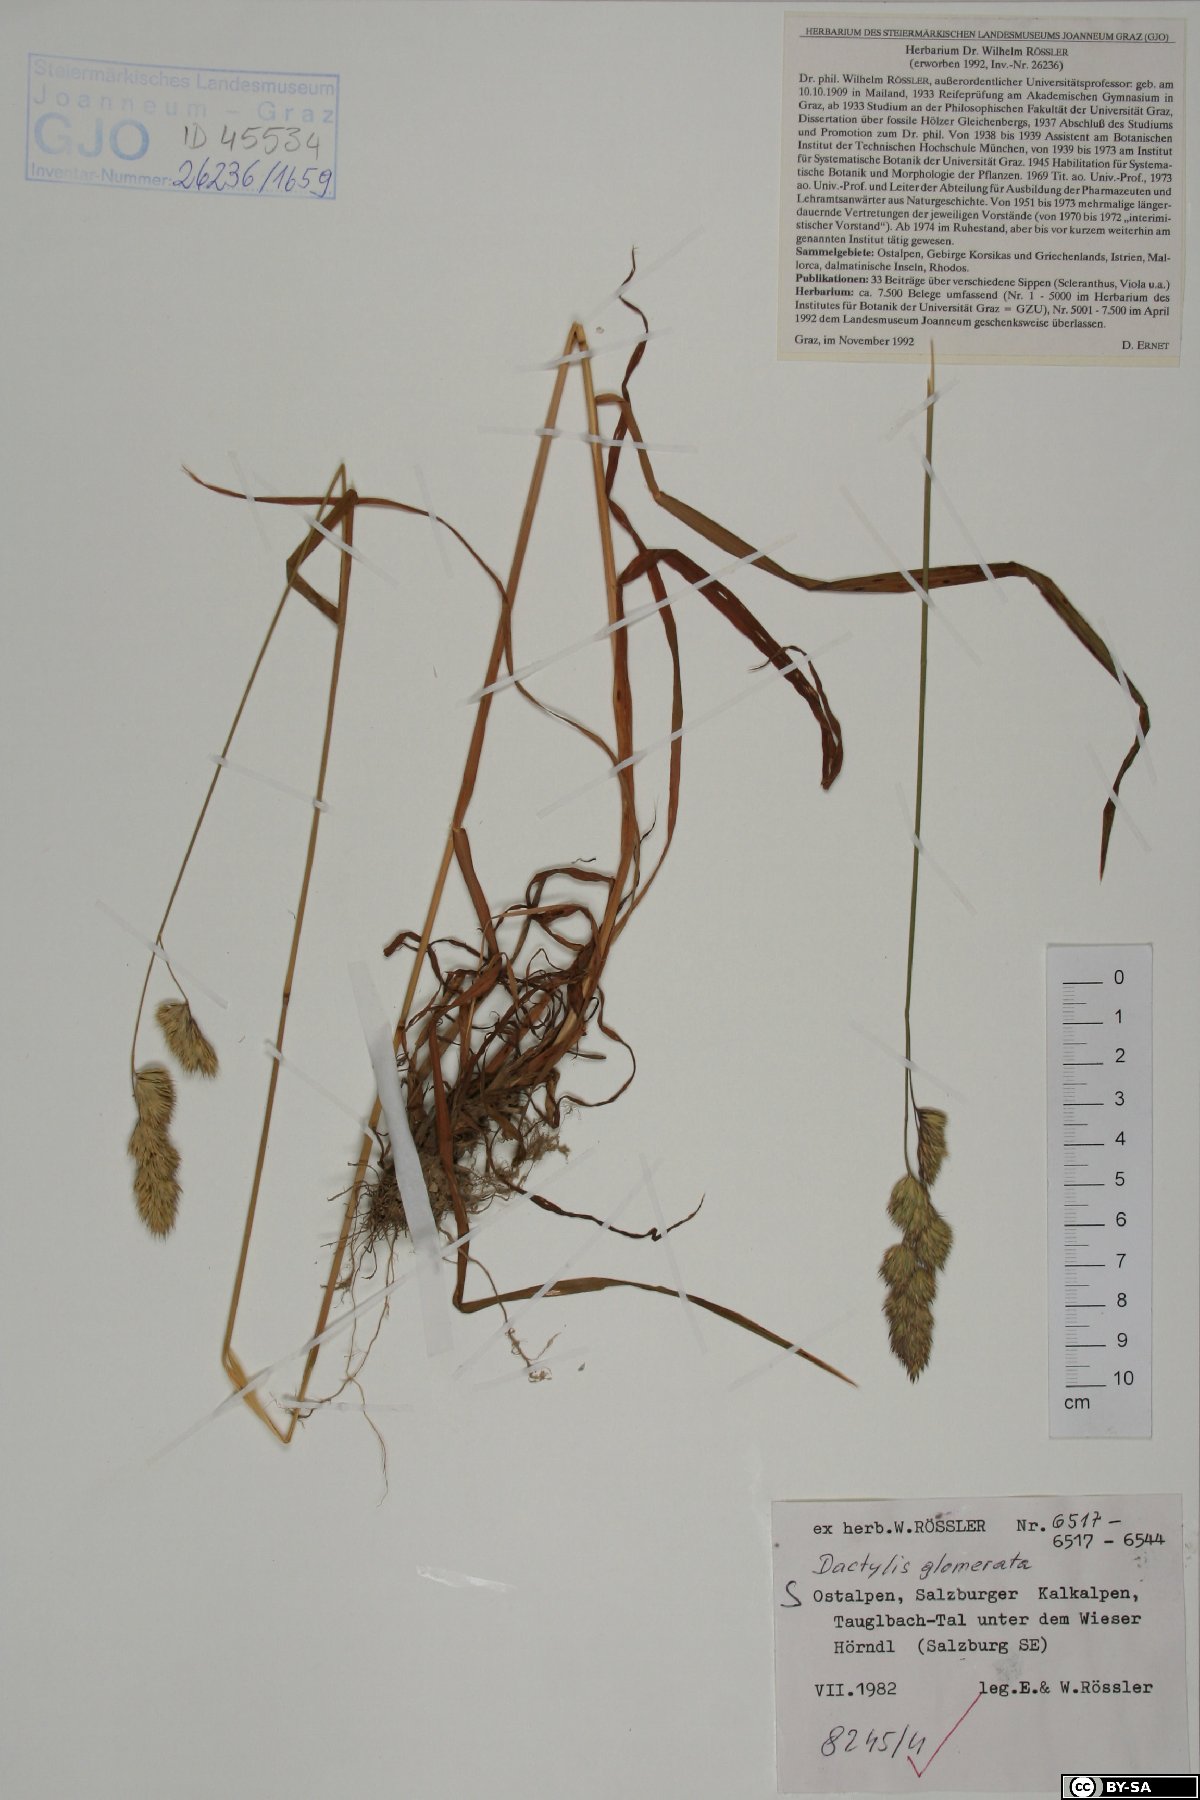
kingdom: Plantae
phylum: Tracheophyta
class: Liliopsida
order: Poales
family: Poaceae
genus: Dactylis
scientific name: Dactylis glomerata
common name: Orchardgrass
